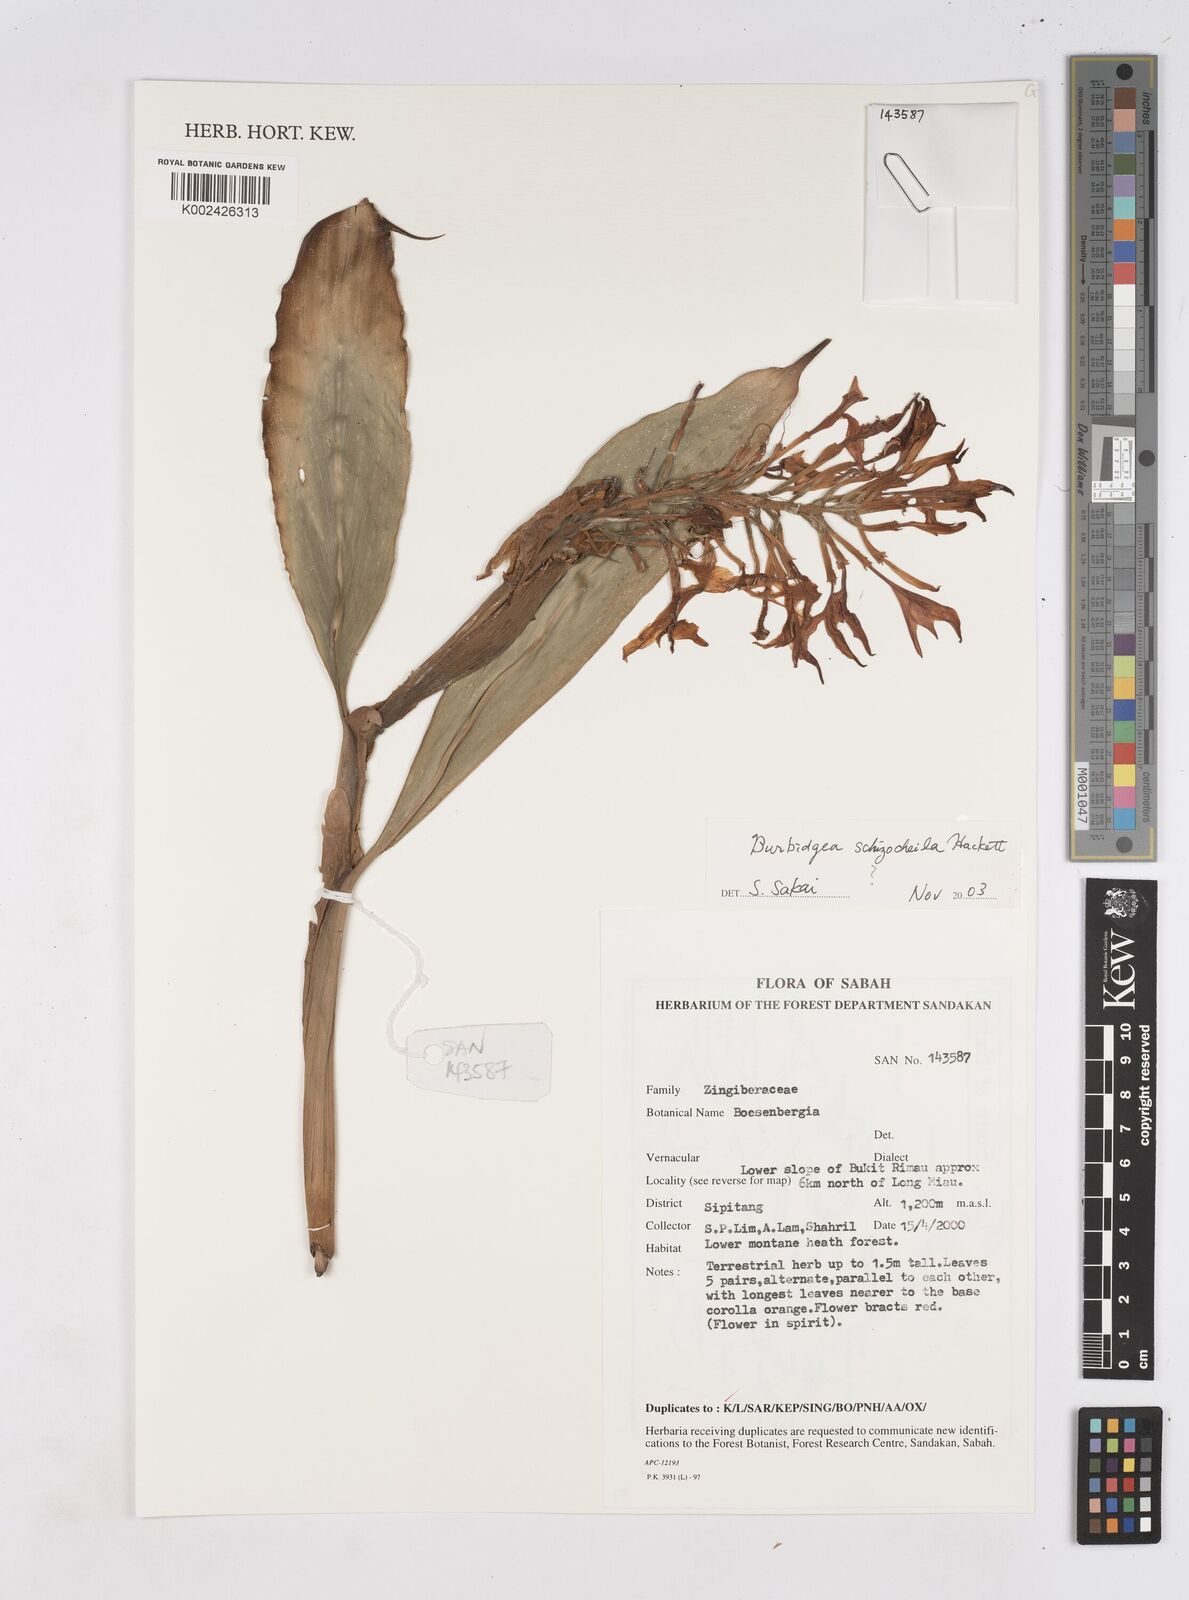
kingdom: Plantae
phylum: Tracheophyta
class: Liliopsida
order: Zingiberales
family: Zingiberaceae
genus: Burbidgea
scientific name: Burbidgea schizocheila
